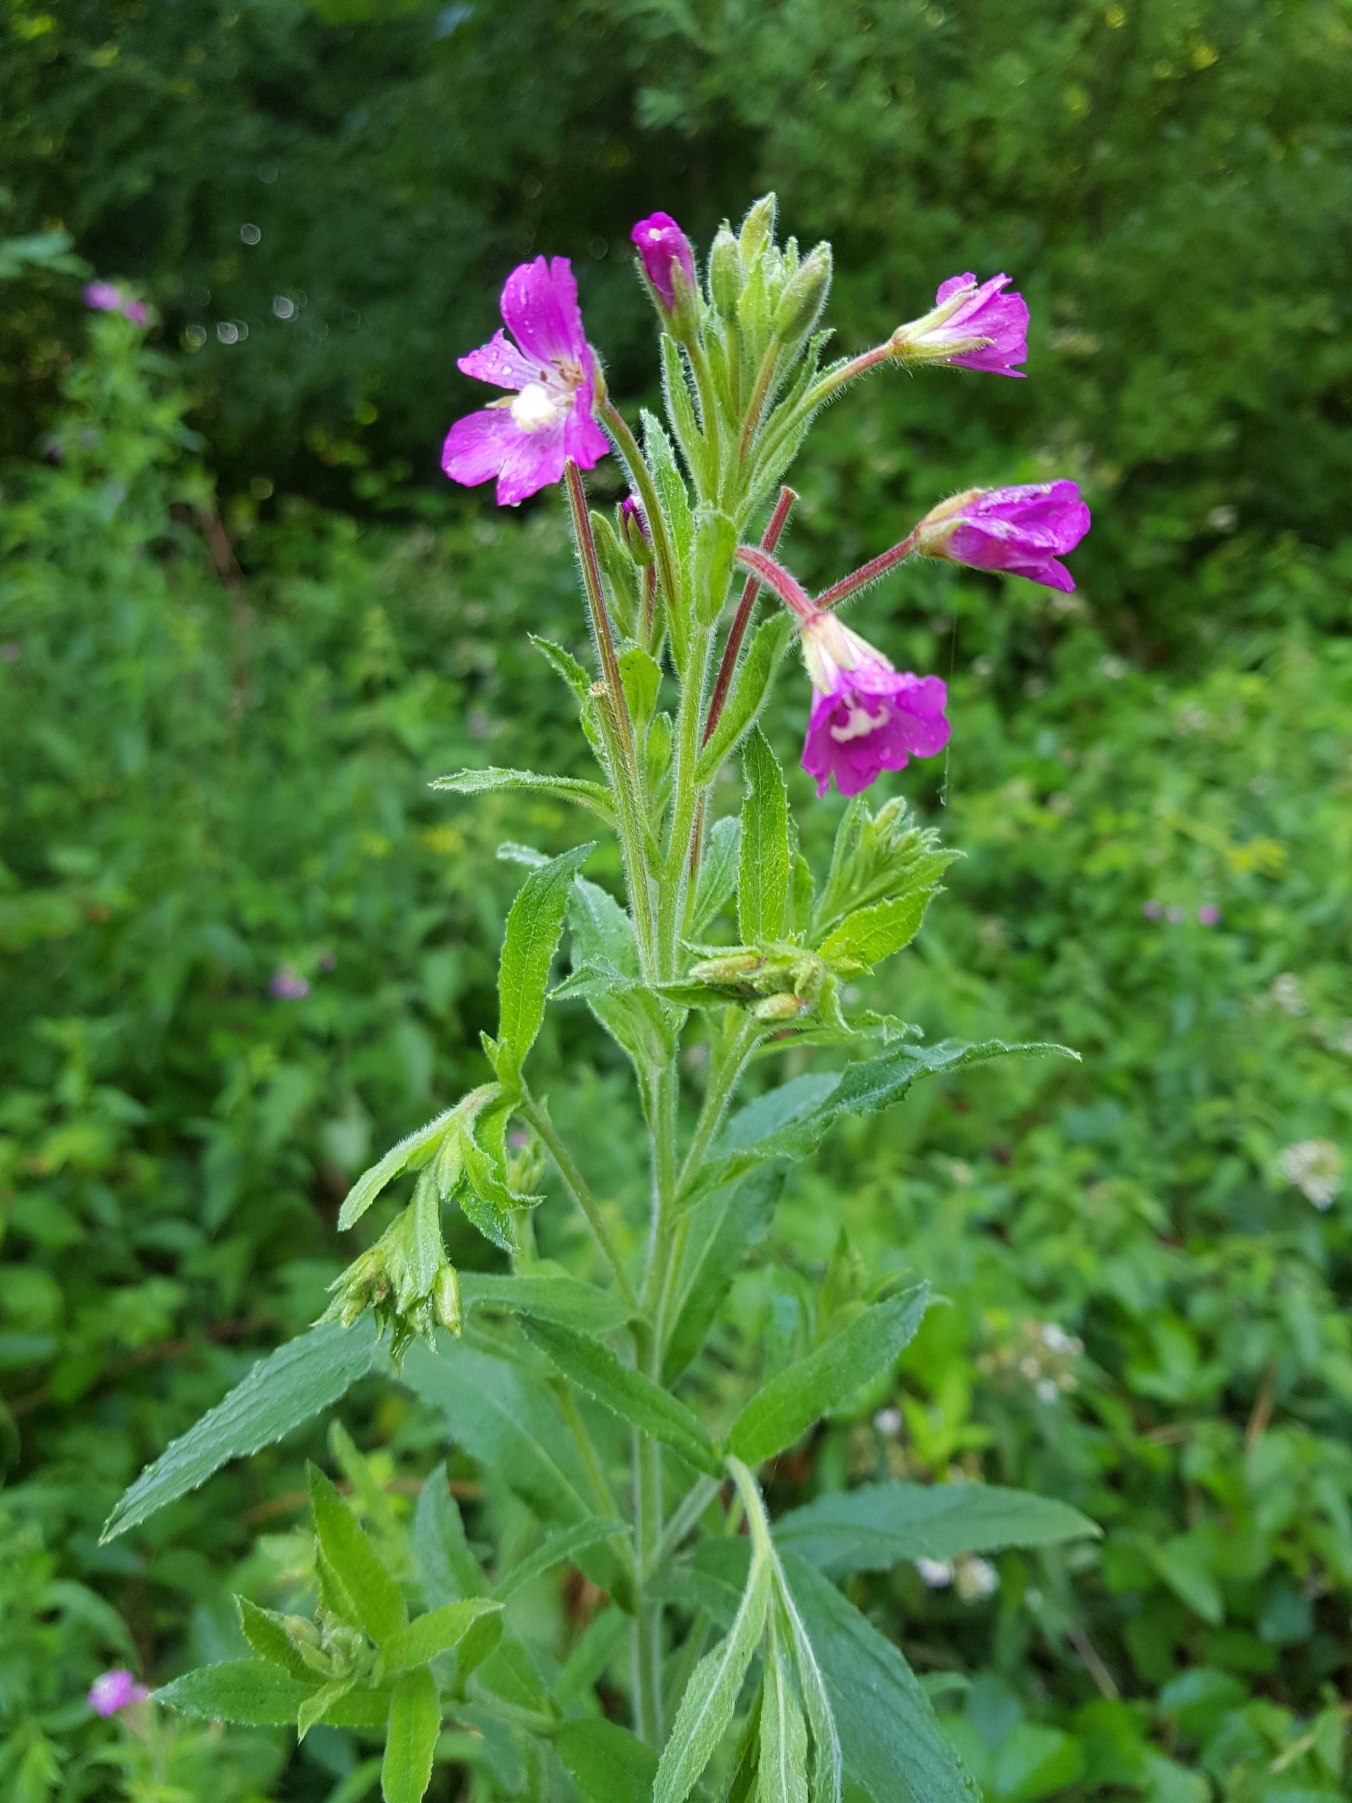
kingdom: Plantae
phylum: Tracheophyta
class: Magnoliopsida
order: Myrtales
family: Onagraceae
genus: Epilobium
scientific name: Epilobium hirsutum
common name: Lådden dueurt
